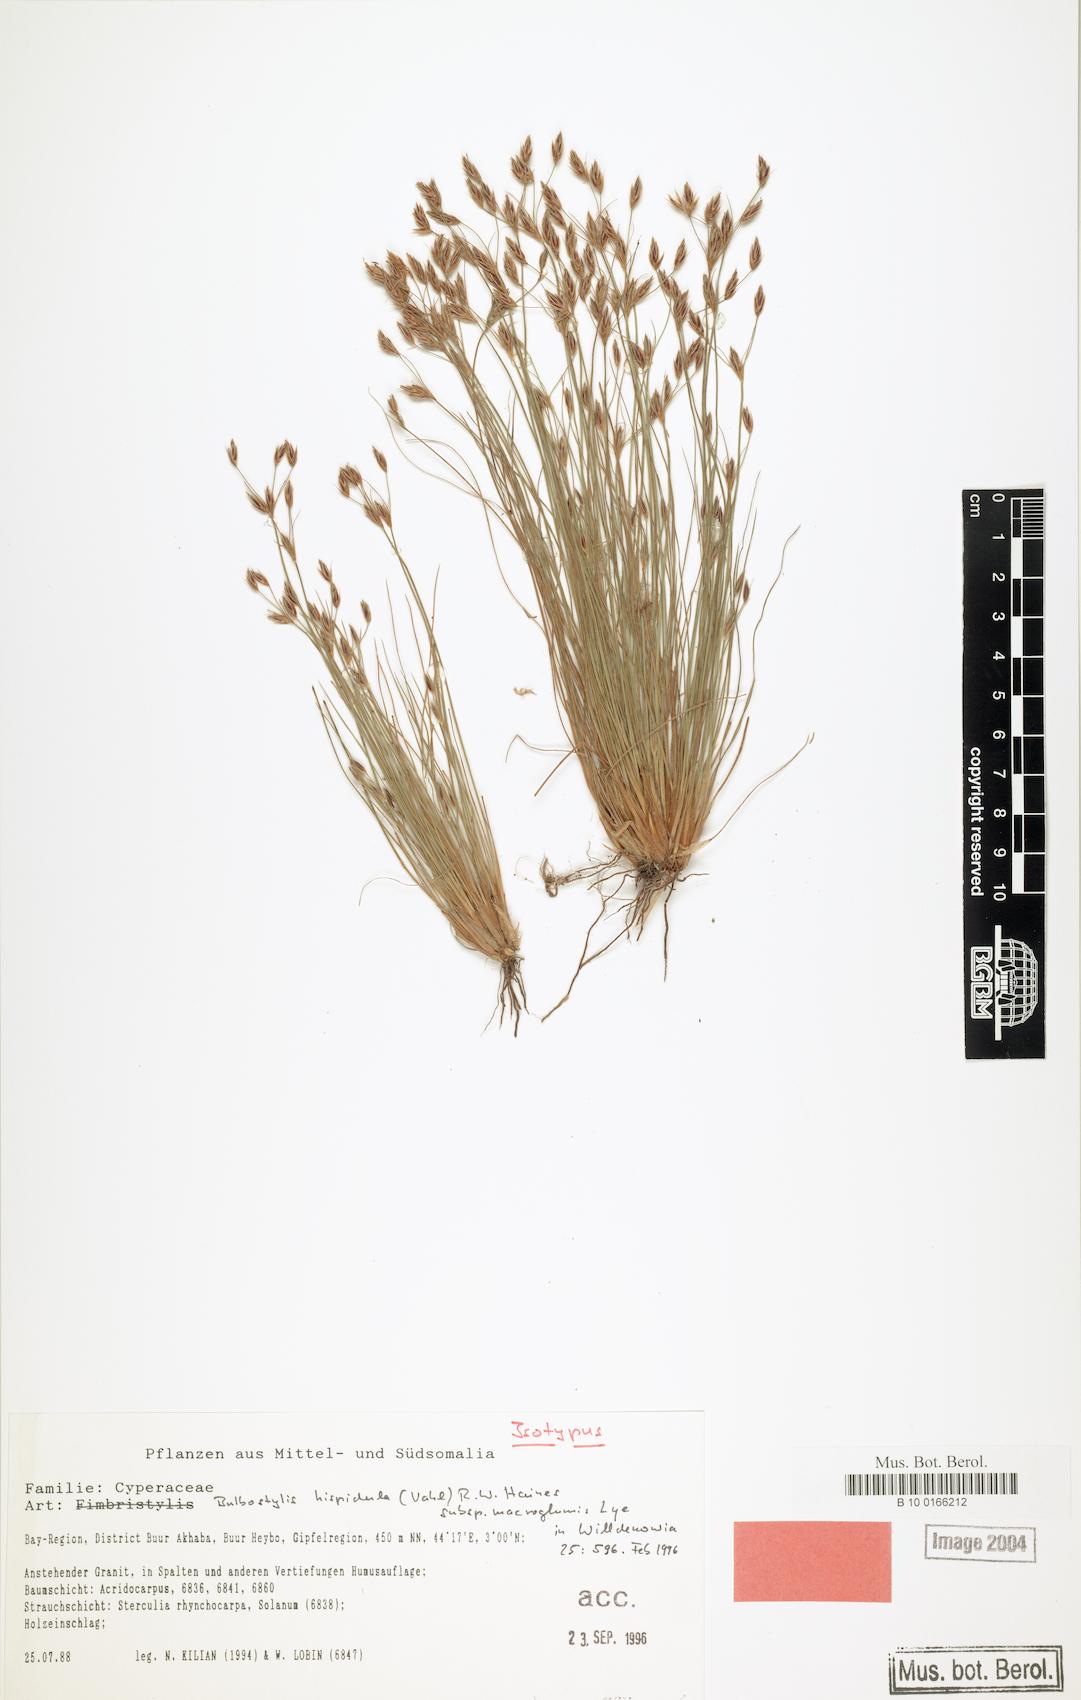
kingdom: Plantae
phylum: Tracheophyta
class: Liliopsida
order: Poales
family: Cyperaceae
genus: Bulbostylis
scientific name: Bulbostylis hispidula
